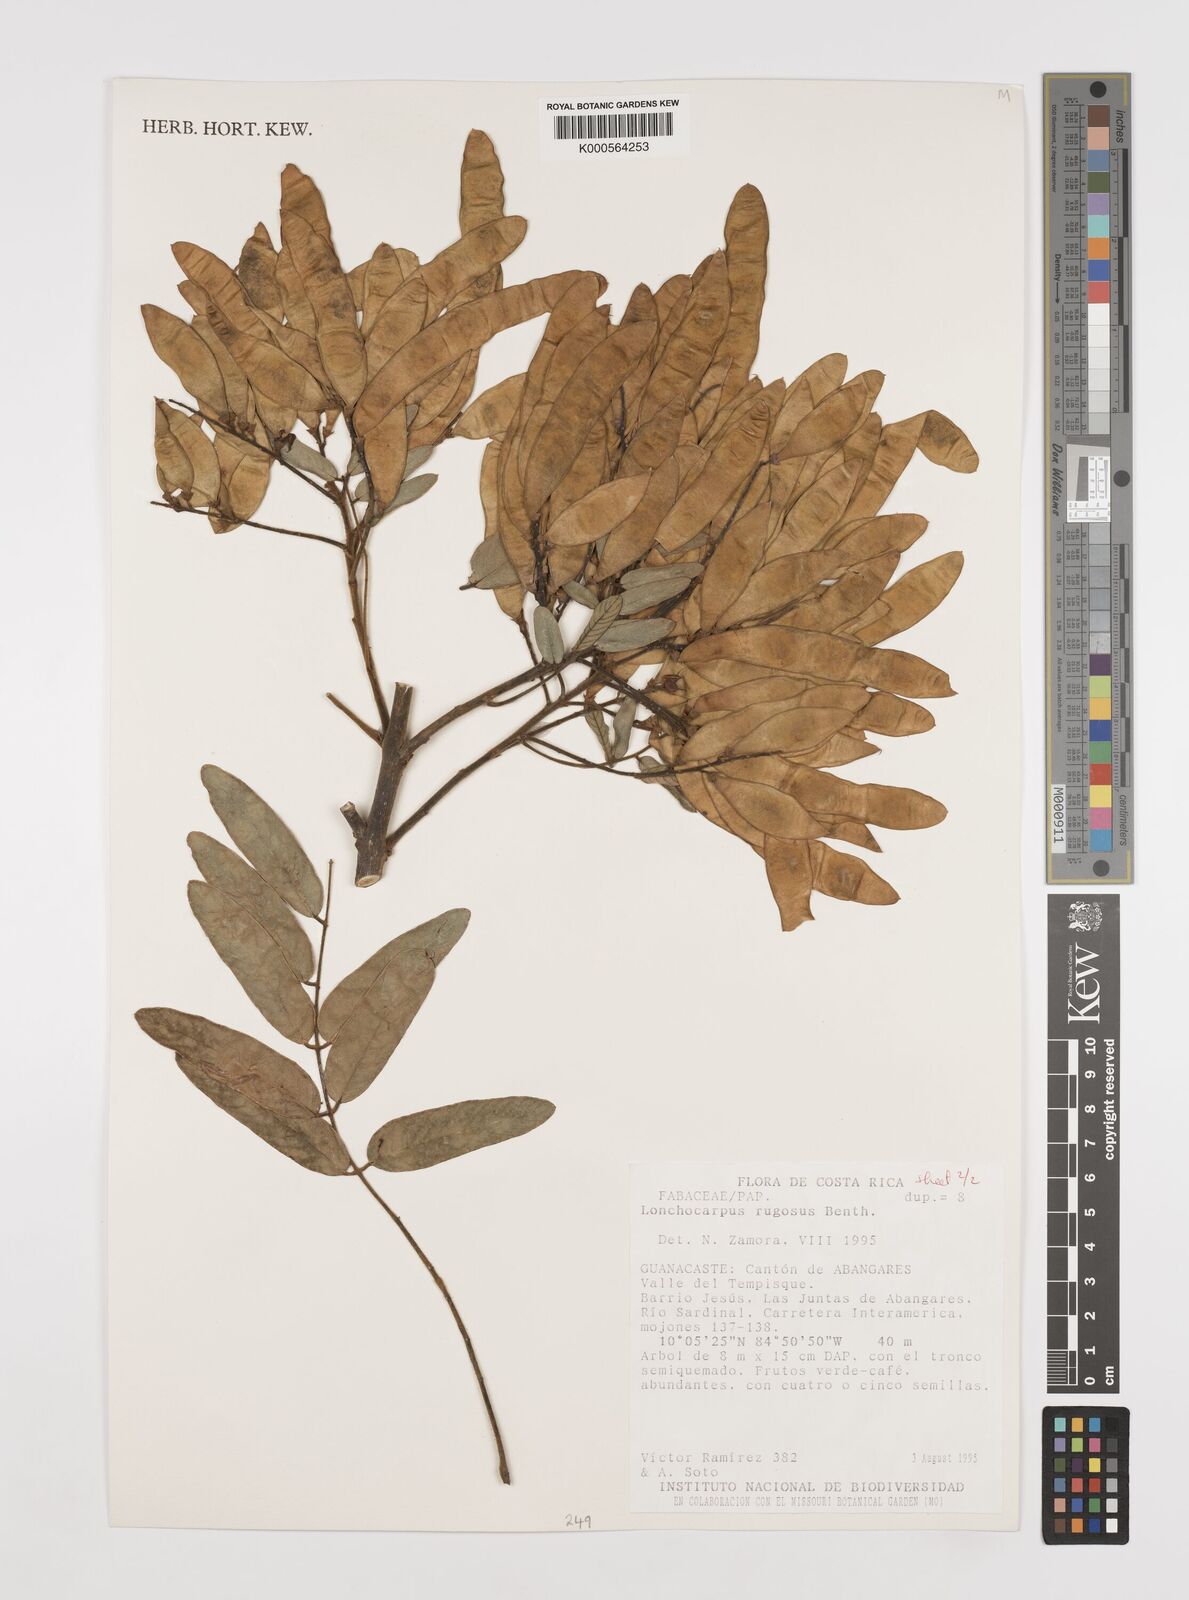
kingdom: Plantae
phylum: Tracheophyta
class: Magnoliopsida
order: Fabales
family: Fabaceae
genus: Lonchocarpus
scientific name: Lonchocarpus rugosus
